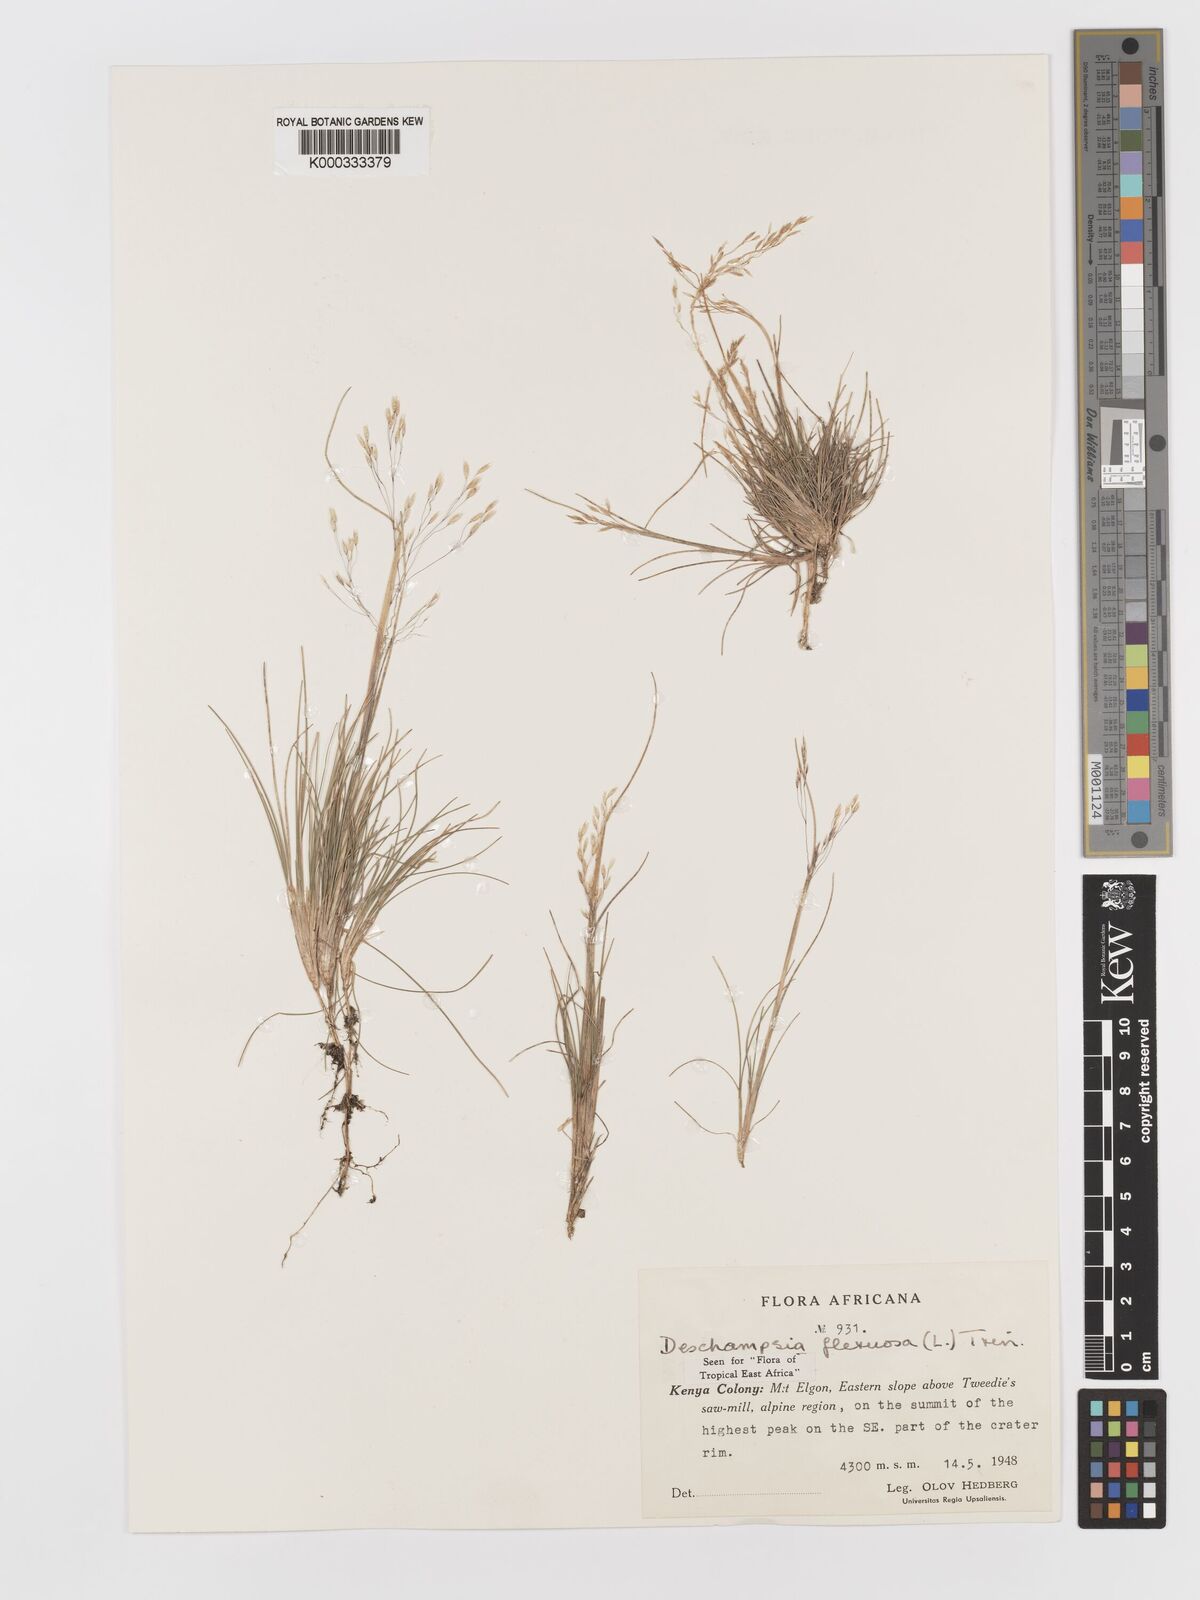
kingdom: Plantae
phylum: Tracheophyta
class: Liliopsida
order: Poales
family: Poaceae
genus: Avenella
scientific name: Avenella flexuosa
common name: Wavy hairgrass
